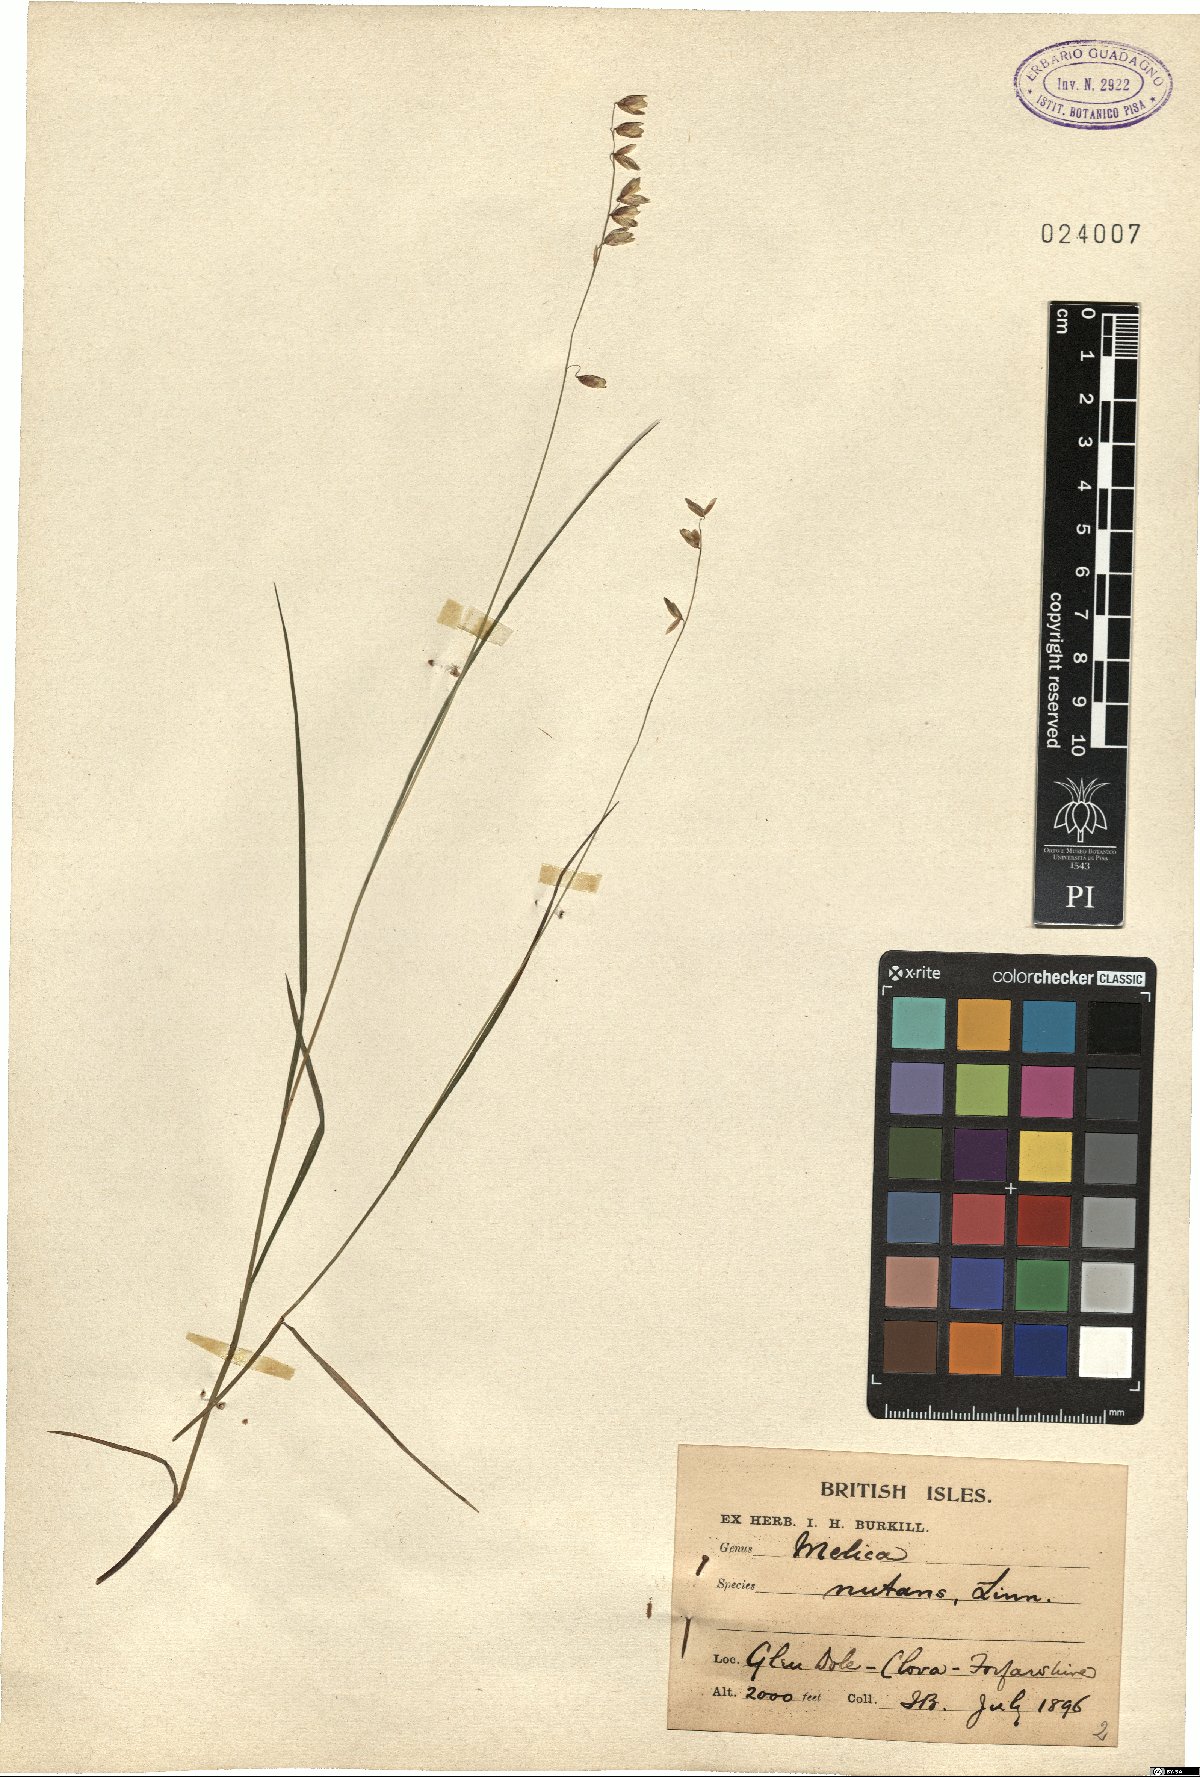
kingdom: Plantae
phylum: Tracheophyta
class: Liliopsida
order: Poales
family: Poaceae
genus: Melica
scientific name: Melica nutans
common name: Mountain melick
